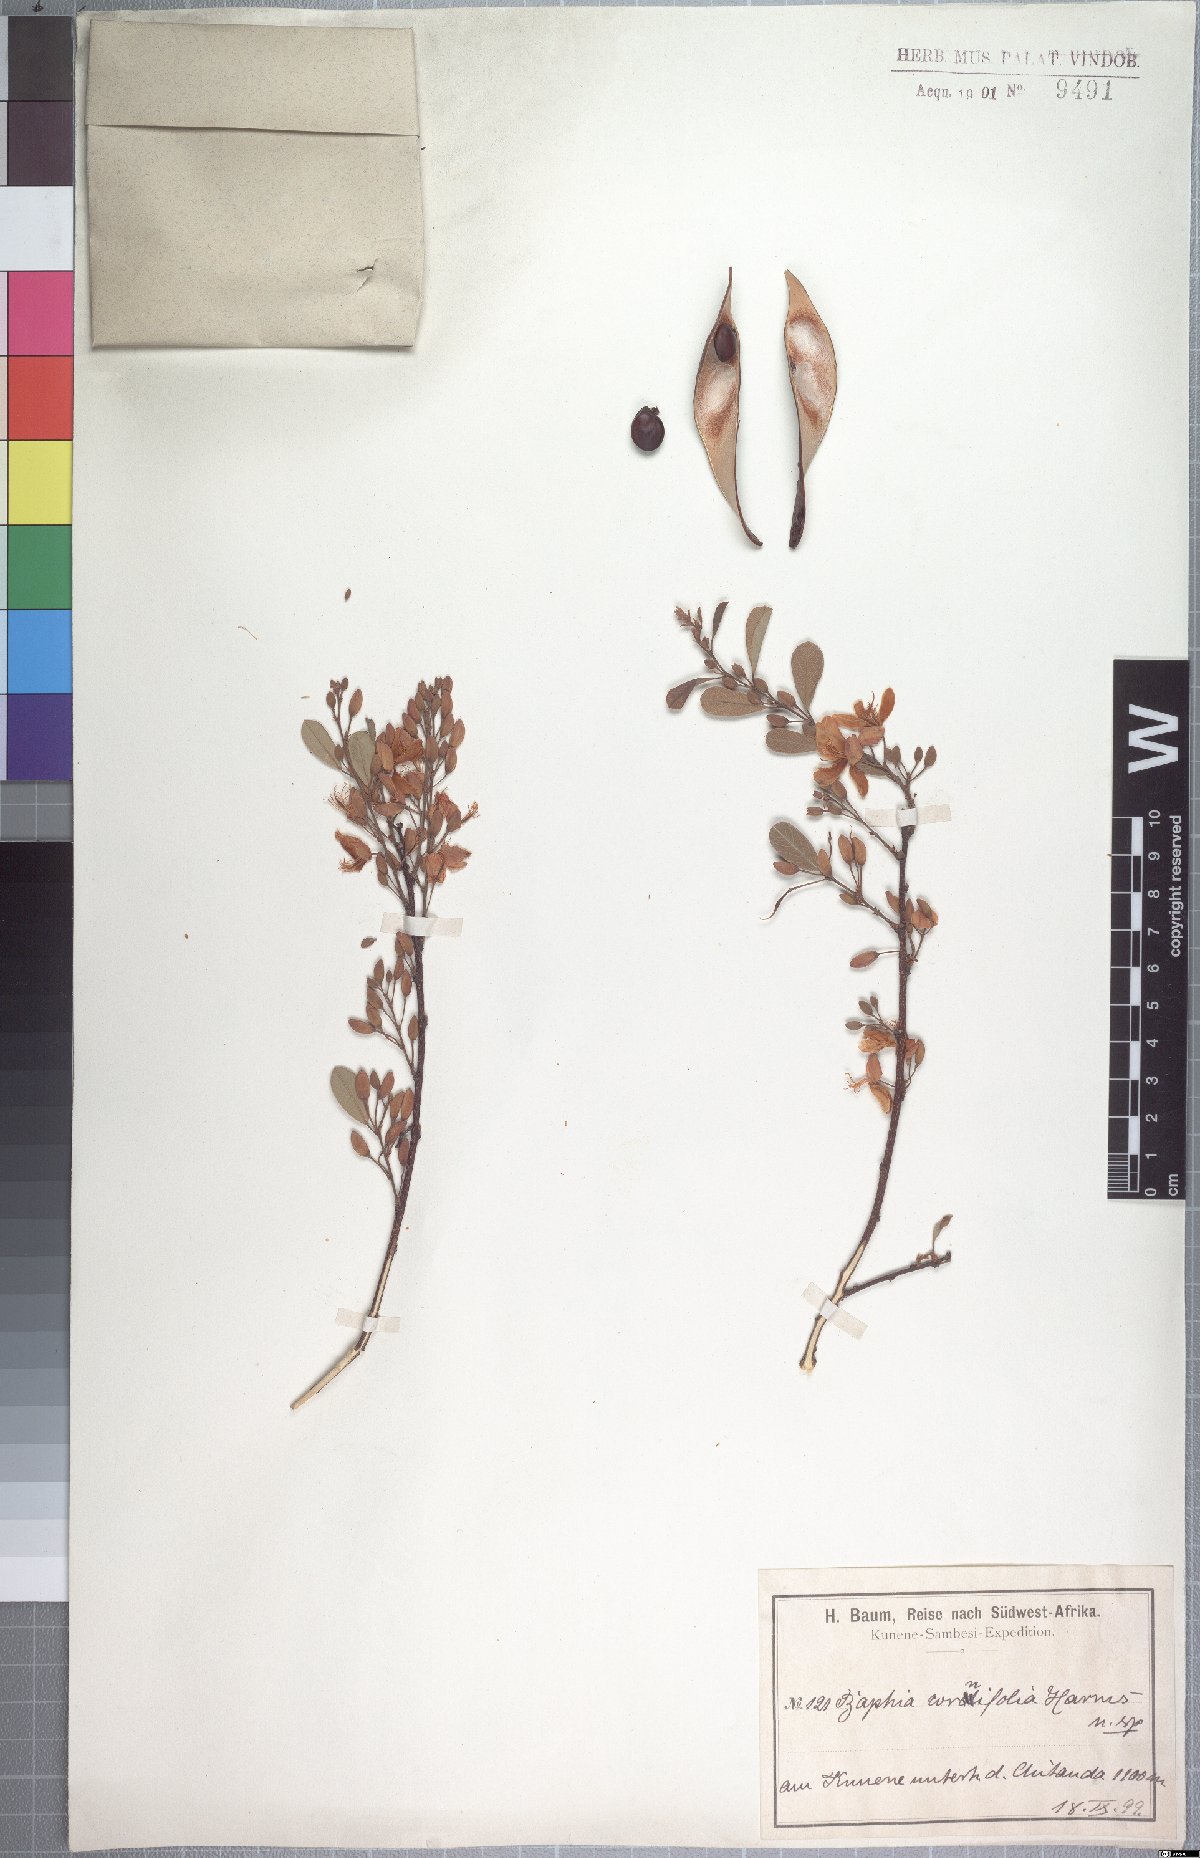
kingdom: Plantae
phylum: Tracheophyta
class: Magnoliopsida
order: Fabales
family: Fabaceae
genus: Baphia
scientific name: Baphia massaiensis
